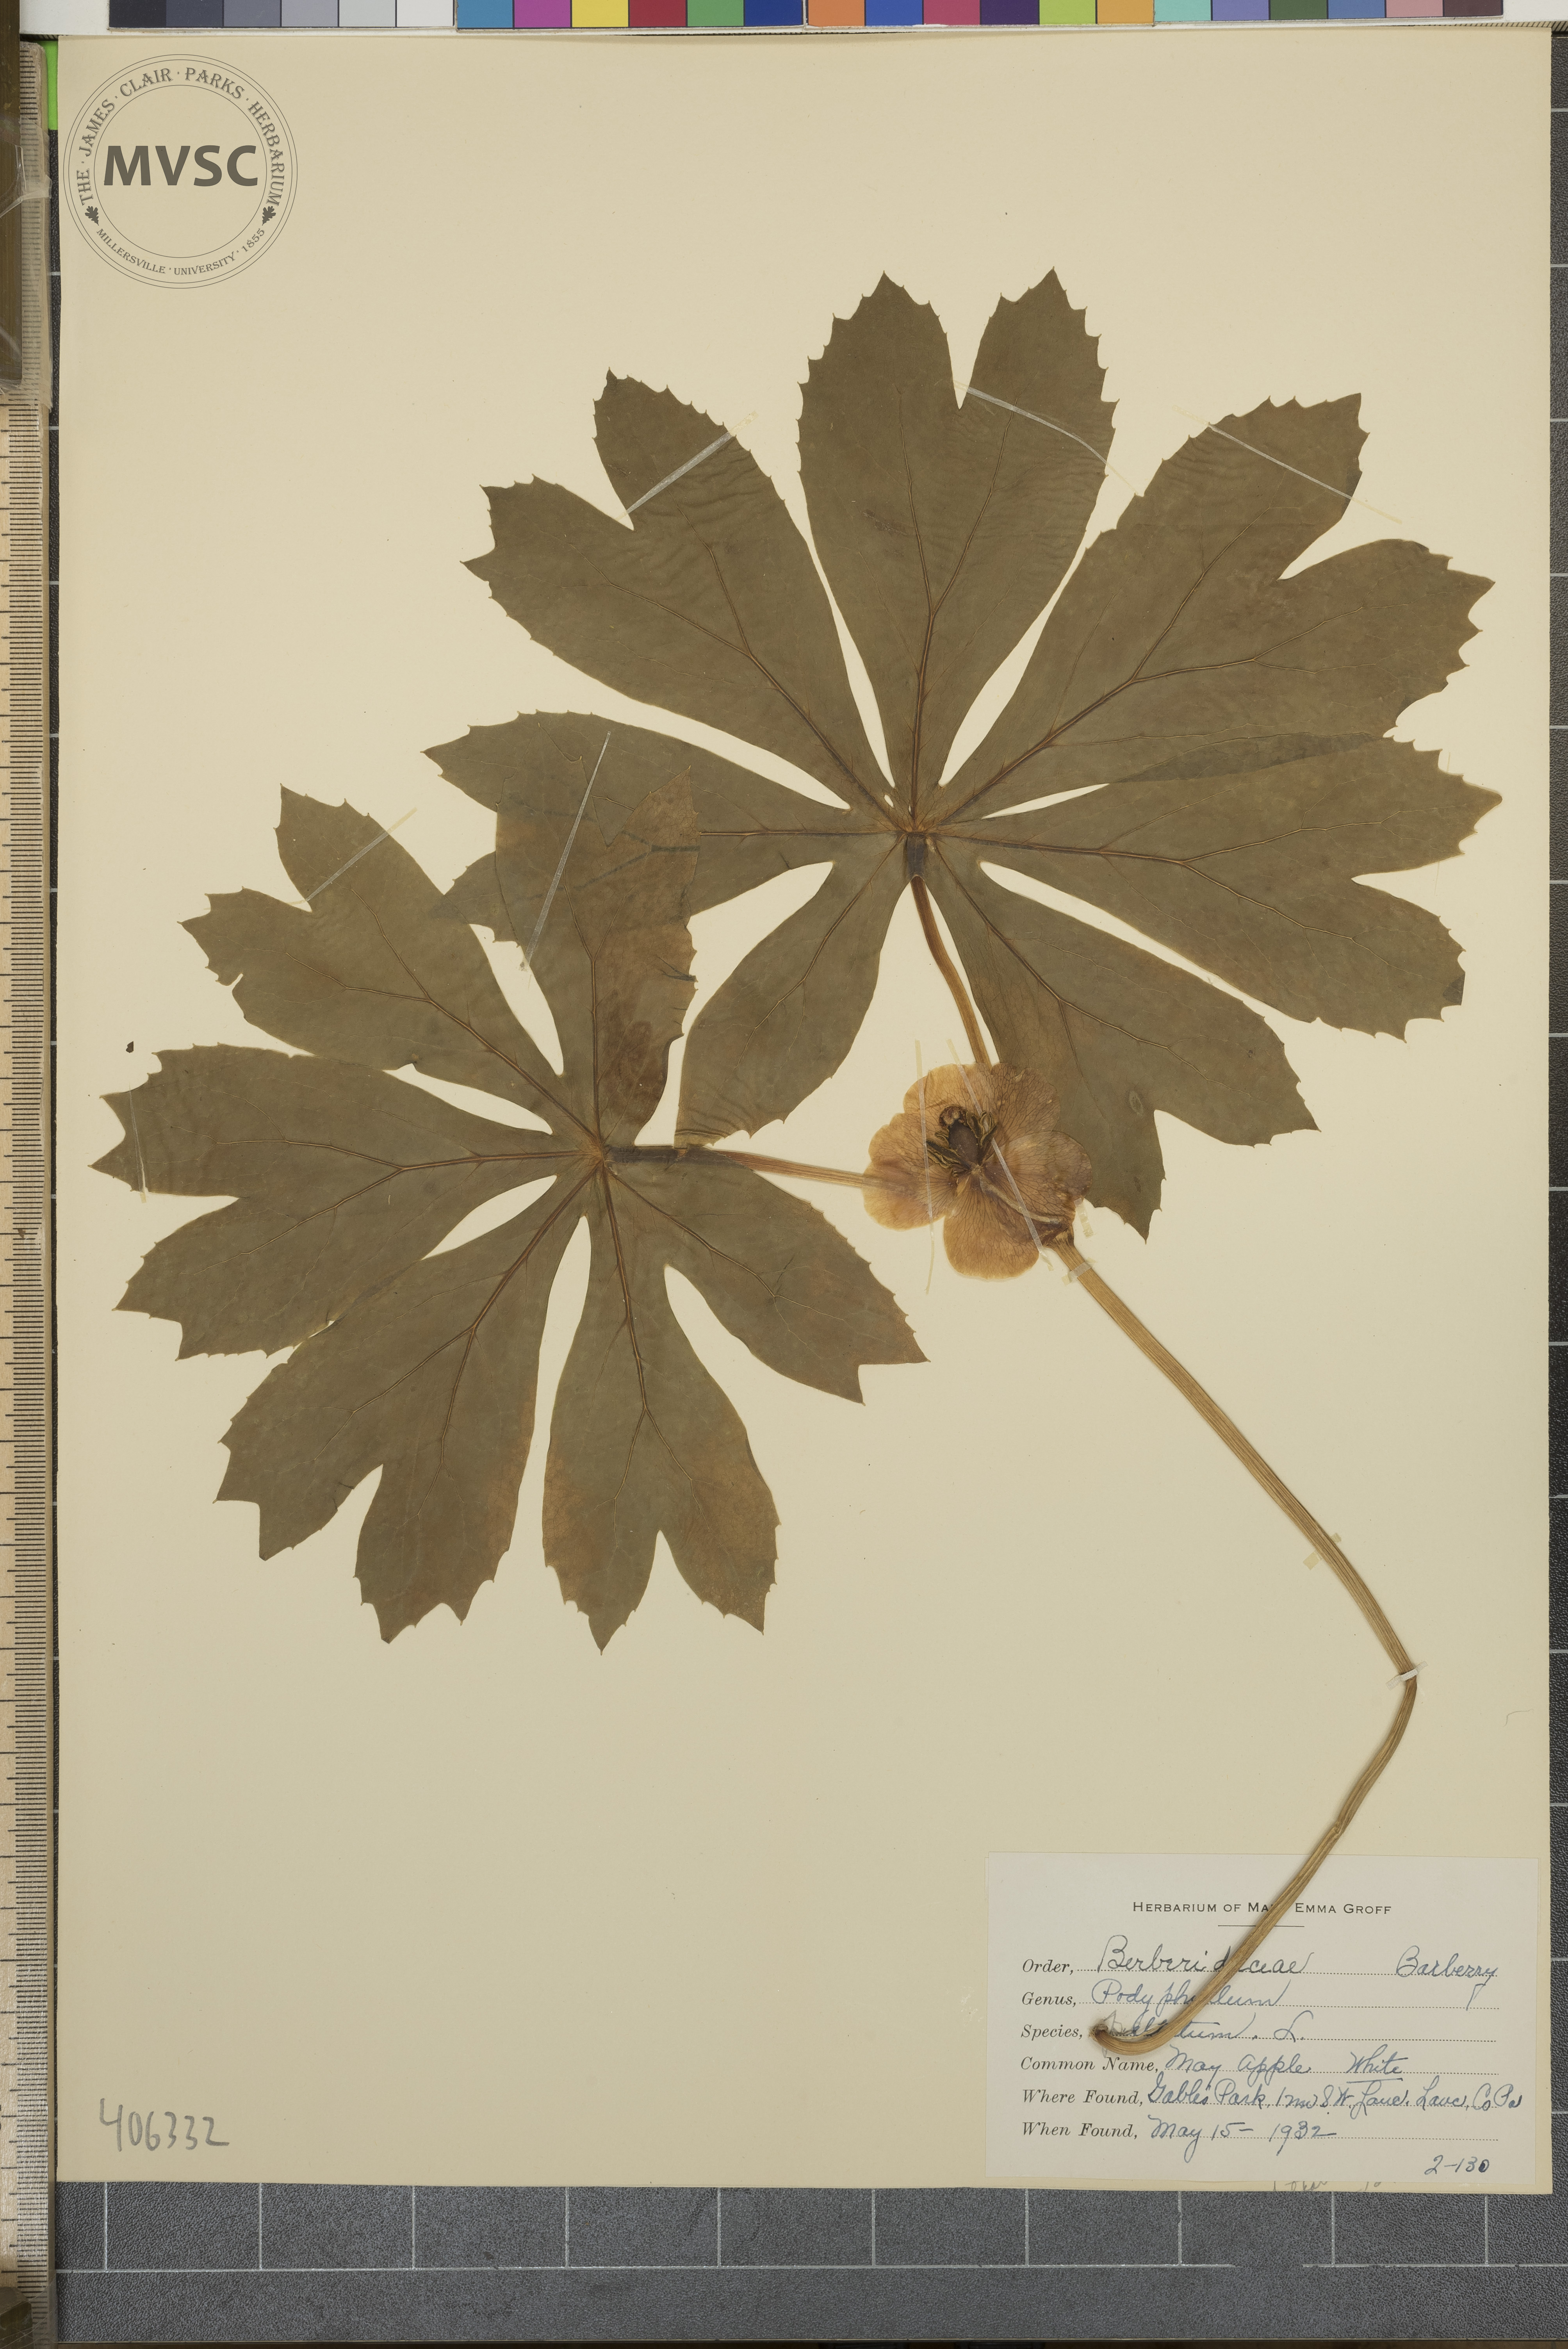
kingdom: Plantae
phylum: Tracheophyta
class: Magnoliopsida
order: Ranunculales
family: Berberidaceae
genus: Podophyllum
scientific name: Podophyllum peltatum
